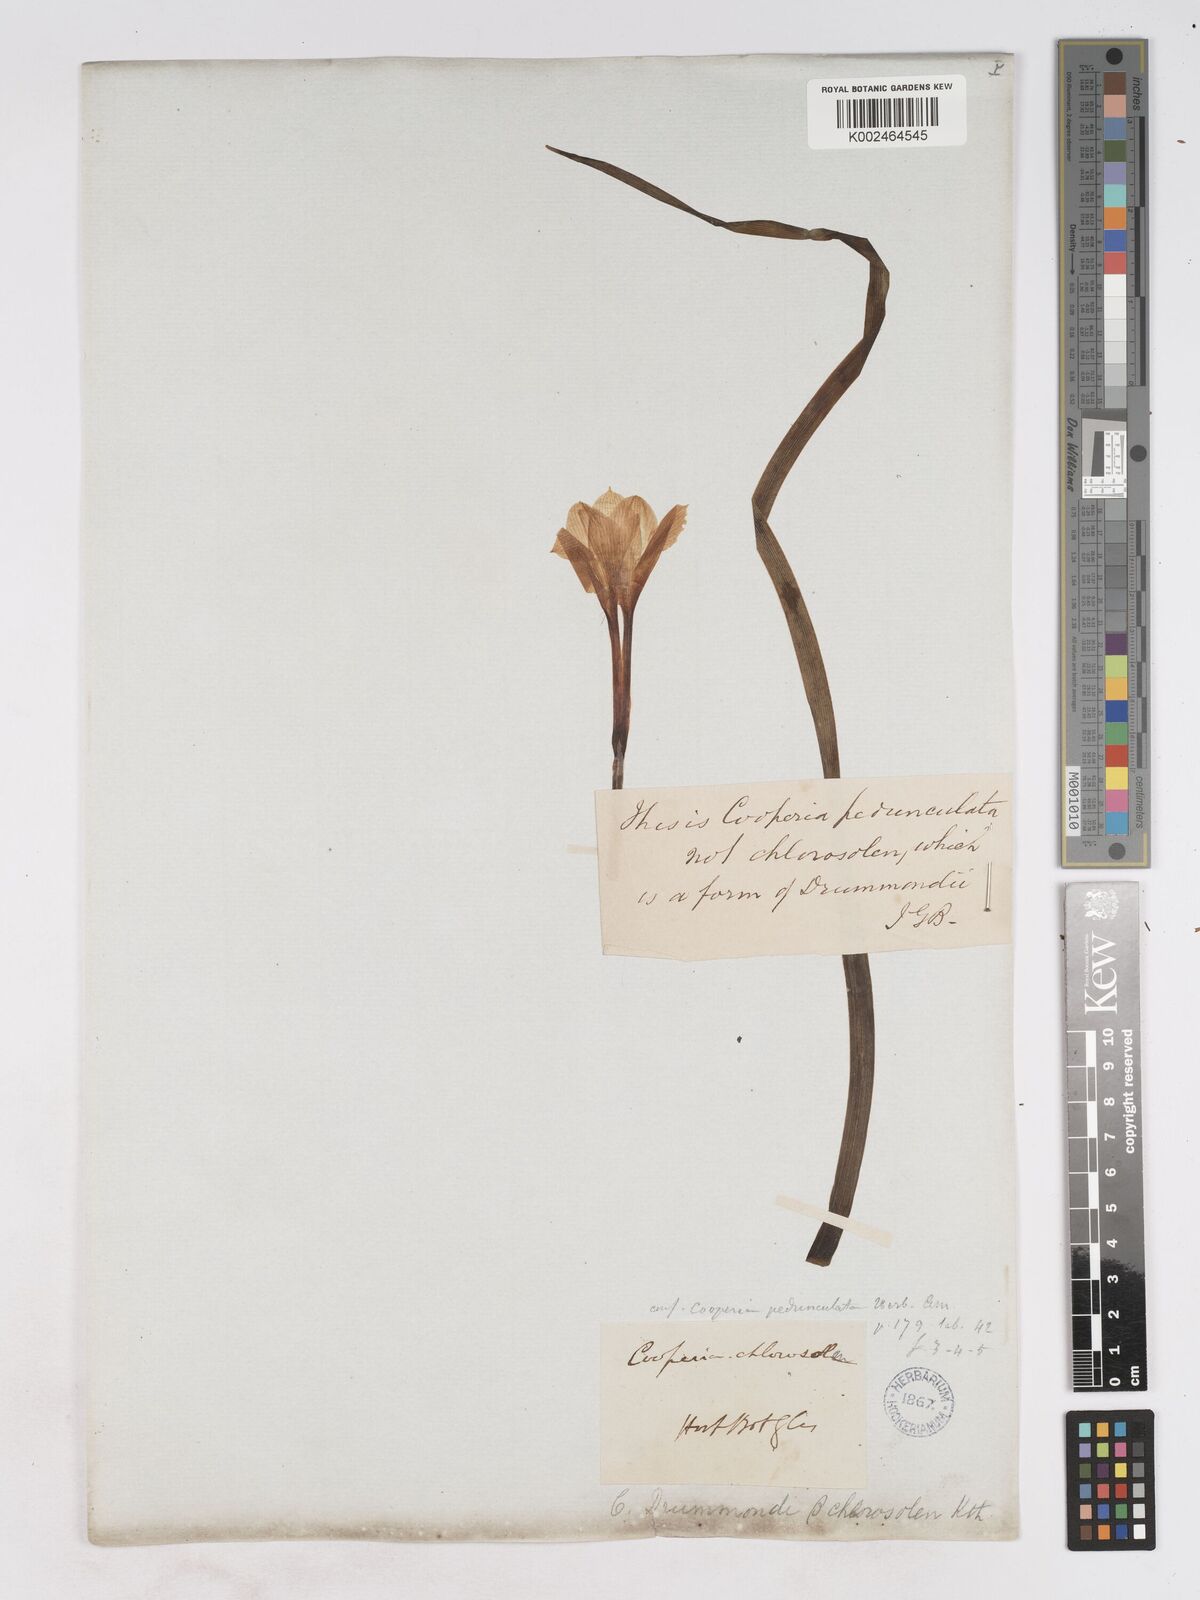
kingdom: Plantae
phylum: Tracheophyta
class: Liliopsida
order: Asparagales
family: Amaryllidaceae
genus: Zephyranthes
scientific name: Zephyranthes drummondii
